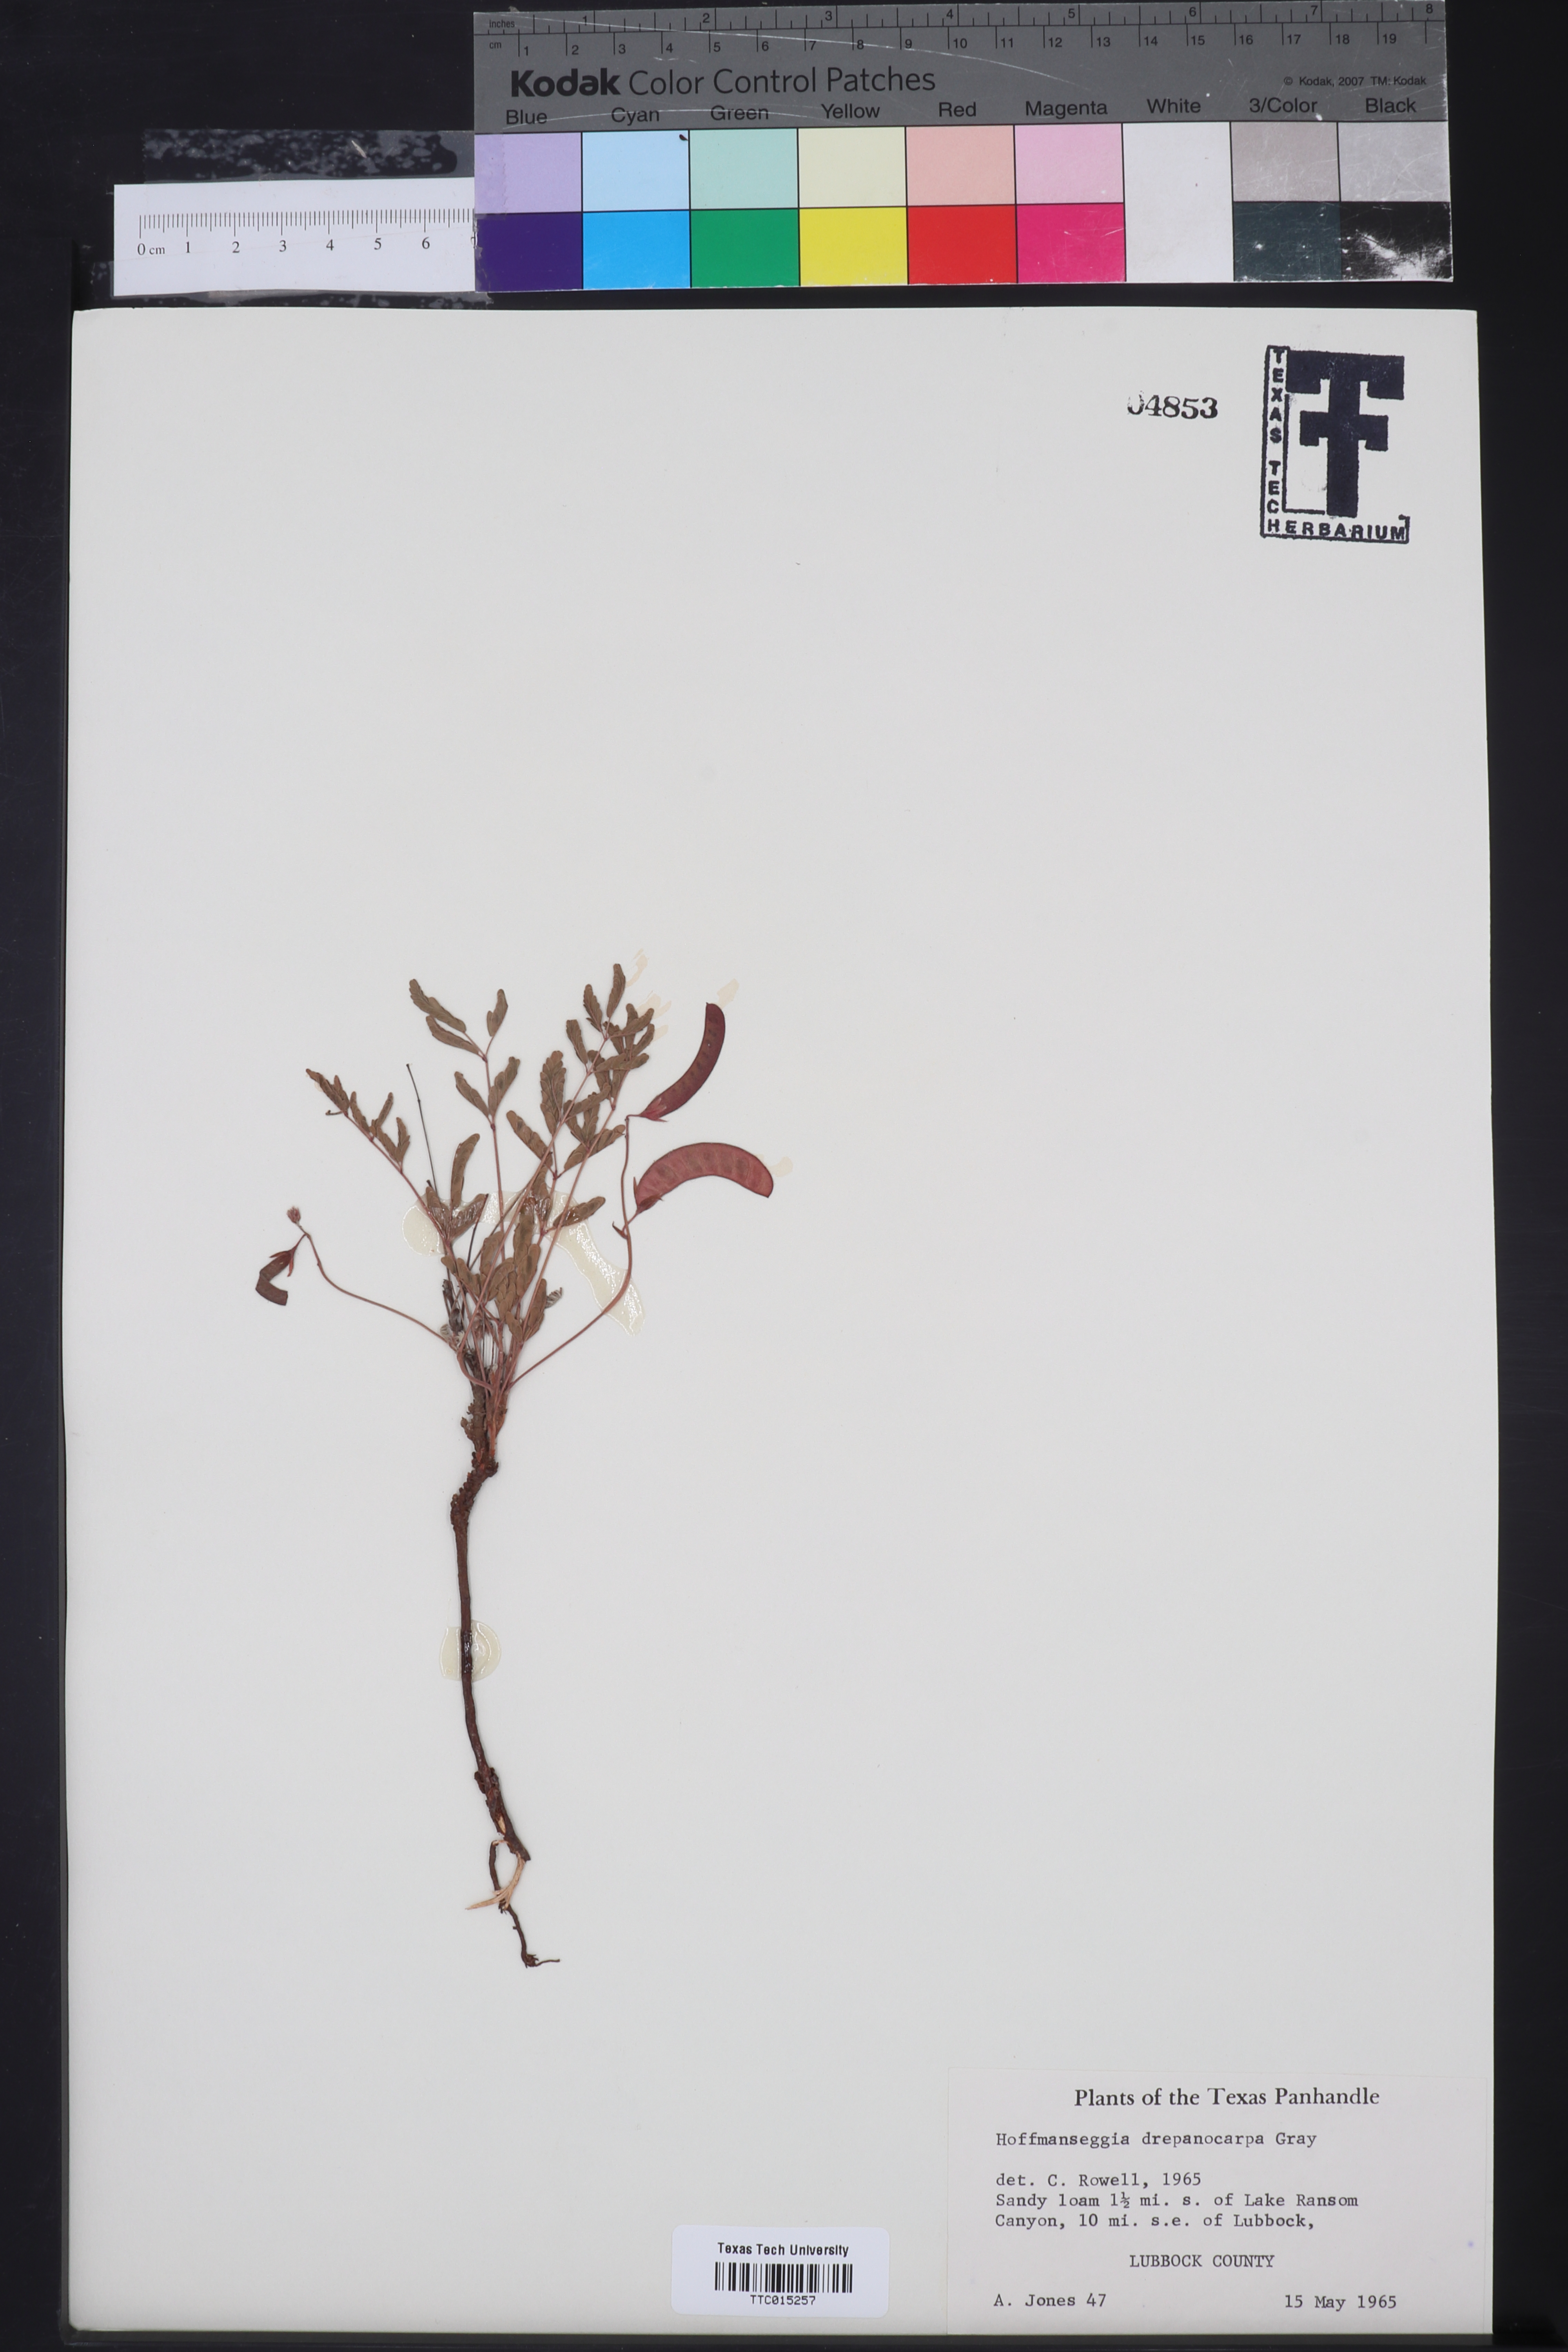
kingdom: Plantae
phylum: Tracheophyta
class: Magnoliopsida
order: Fabales
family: Fabaceae
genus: Hoffmannseggia
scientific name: Hoffmannseggia glauca
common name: Pignut
